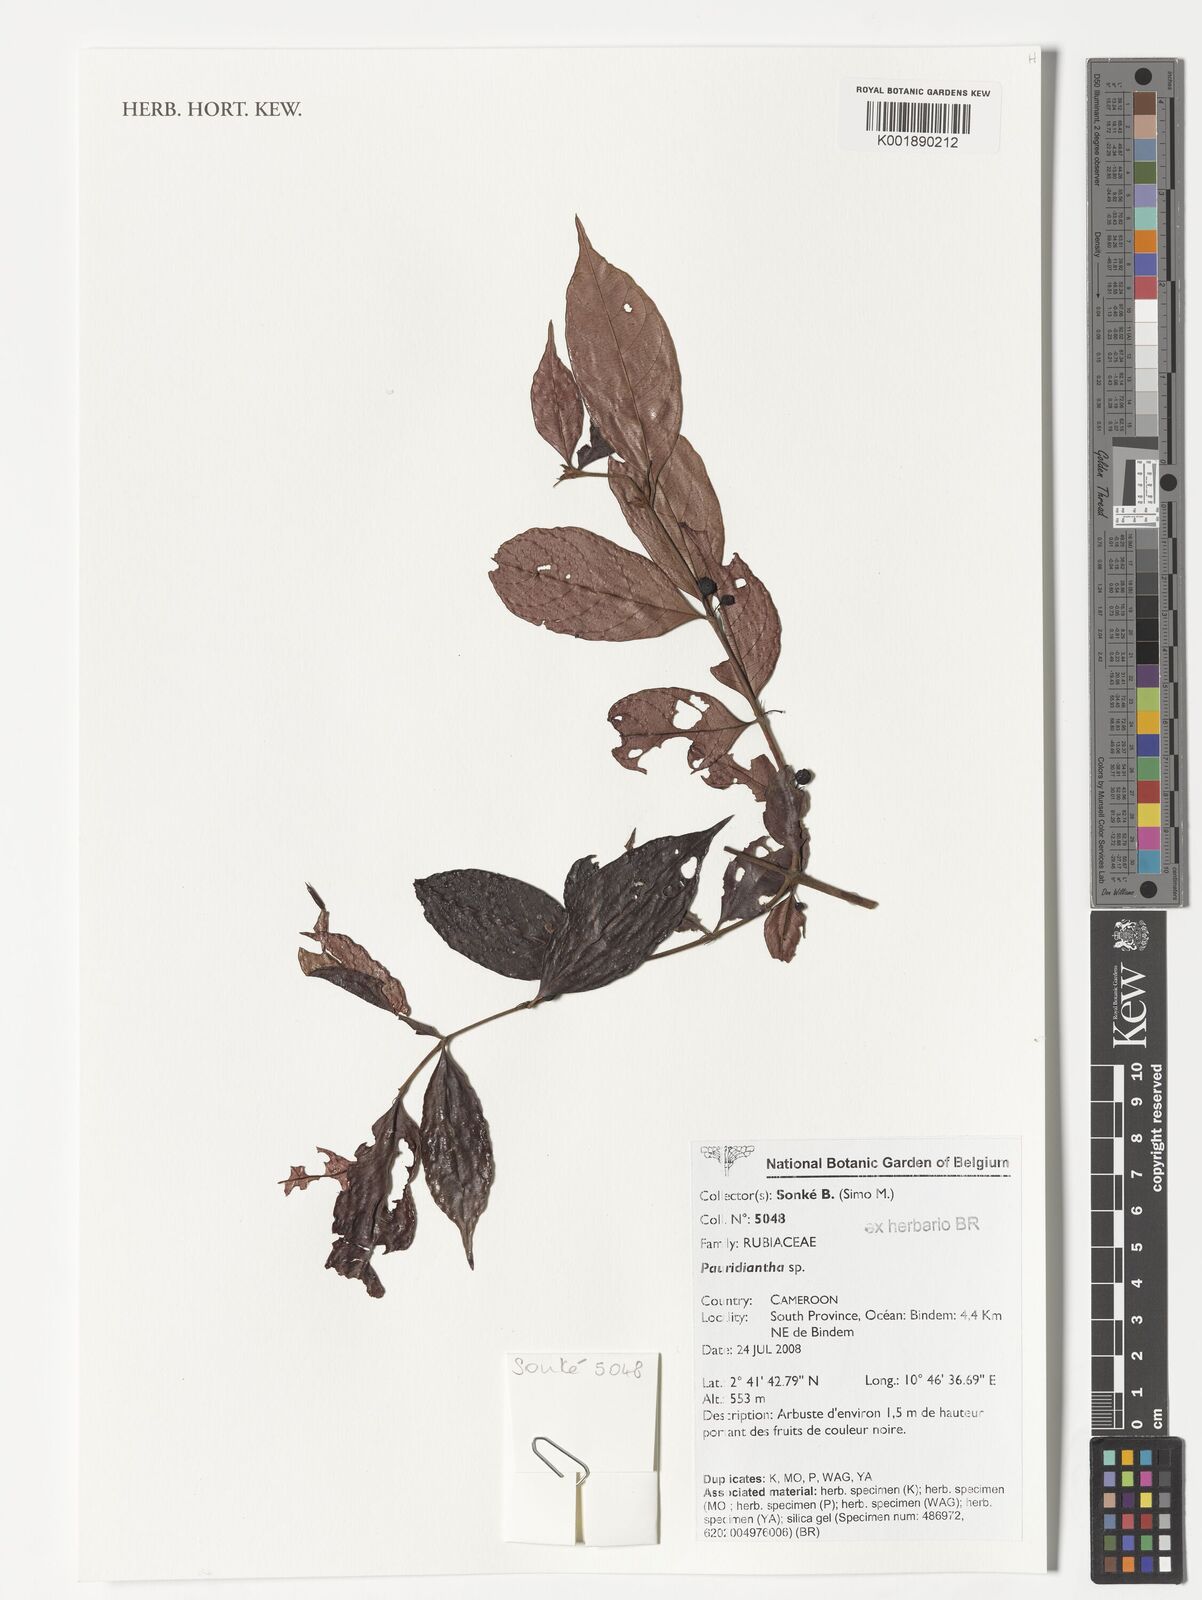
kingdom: Plantae
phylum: Tracheophyta
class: Magnoliopsida
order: Gentianales
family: Rubiaceae
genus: Pauridiantha
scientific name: Pauridiantha
